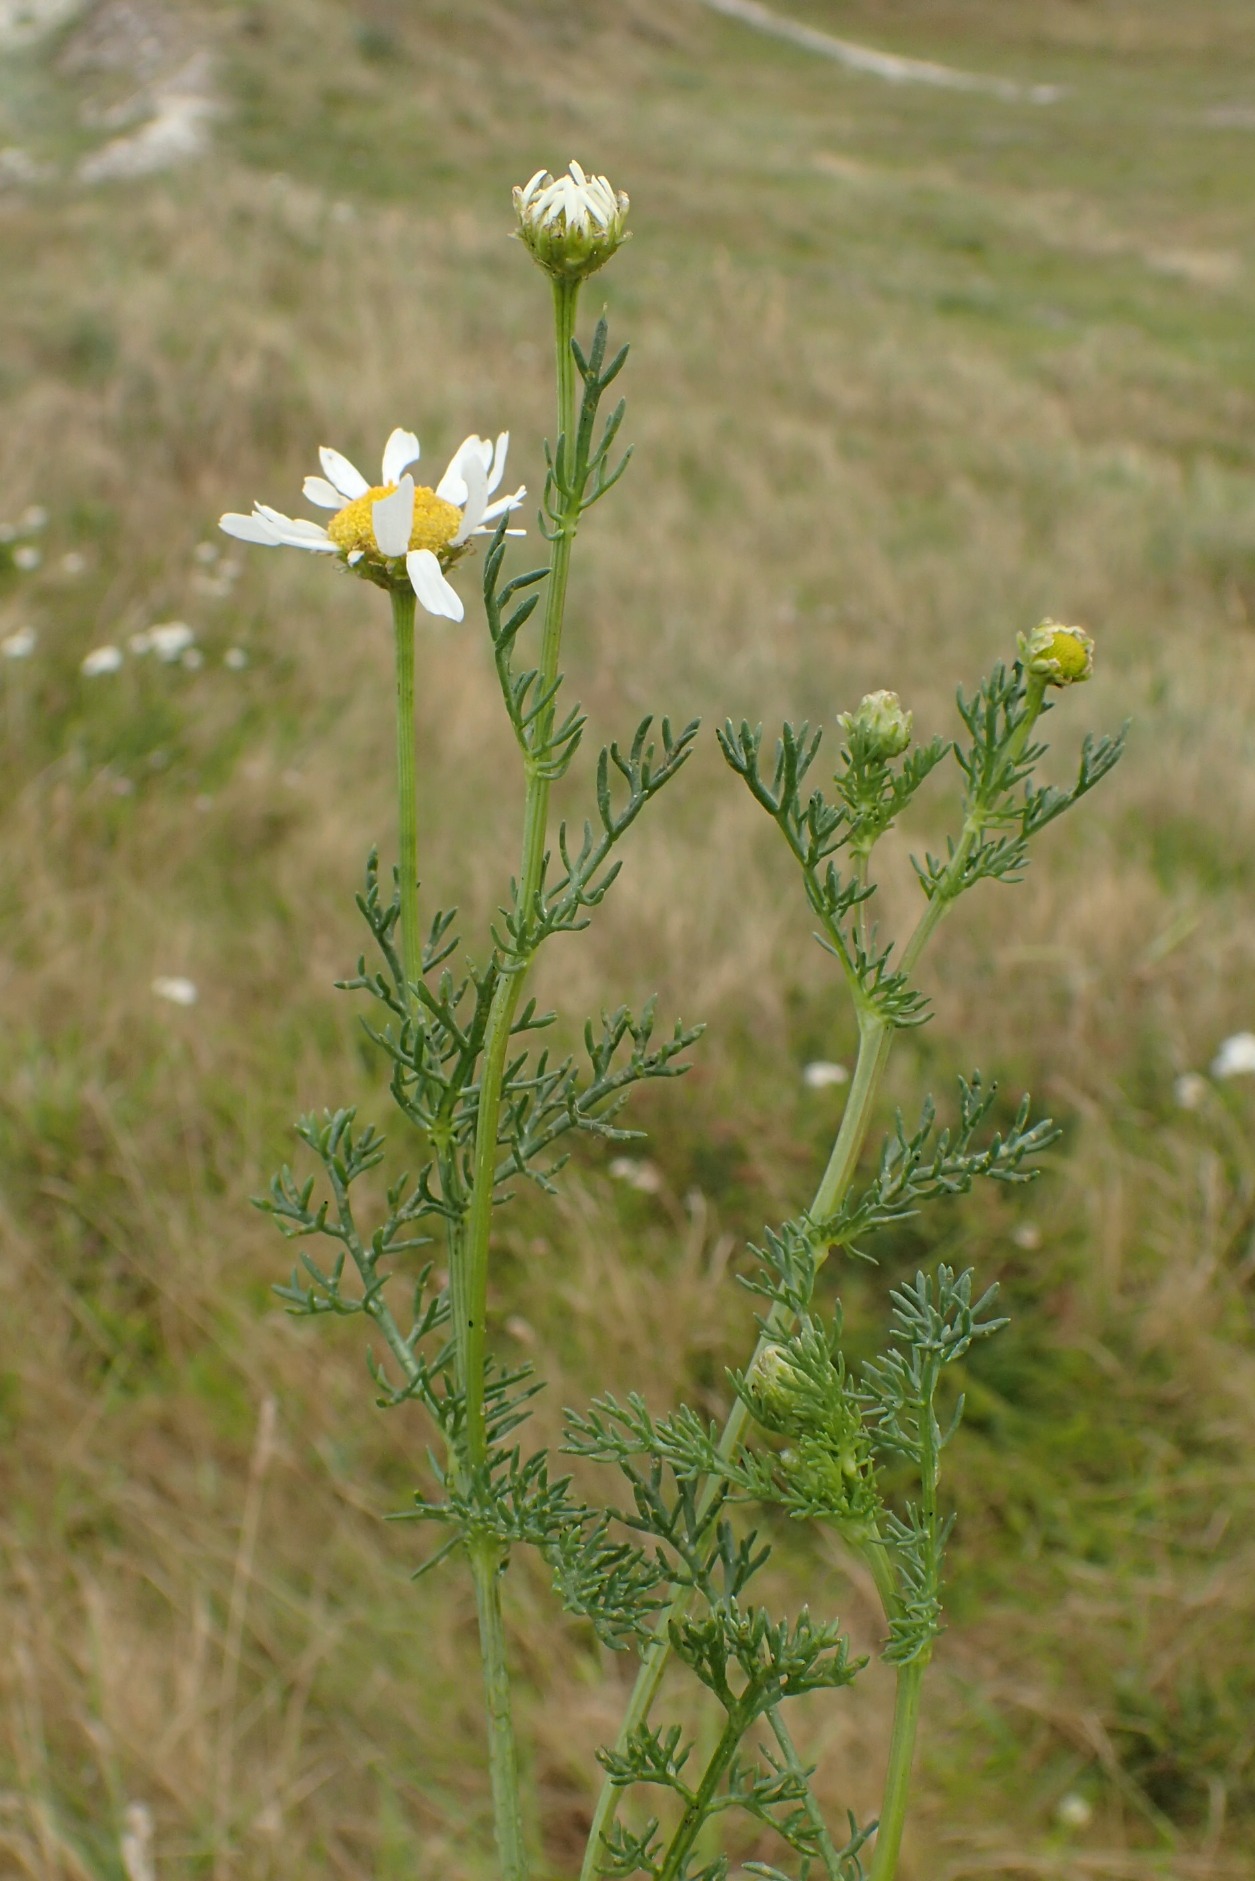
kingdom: Plantae
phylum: Tracheophyta
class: Magnoliopsida
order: Asterales
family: Asteraceae
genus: Tripleurospermum
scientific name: Tripleurospermum maritimum
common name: Strand-kamille
